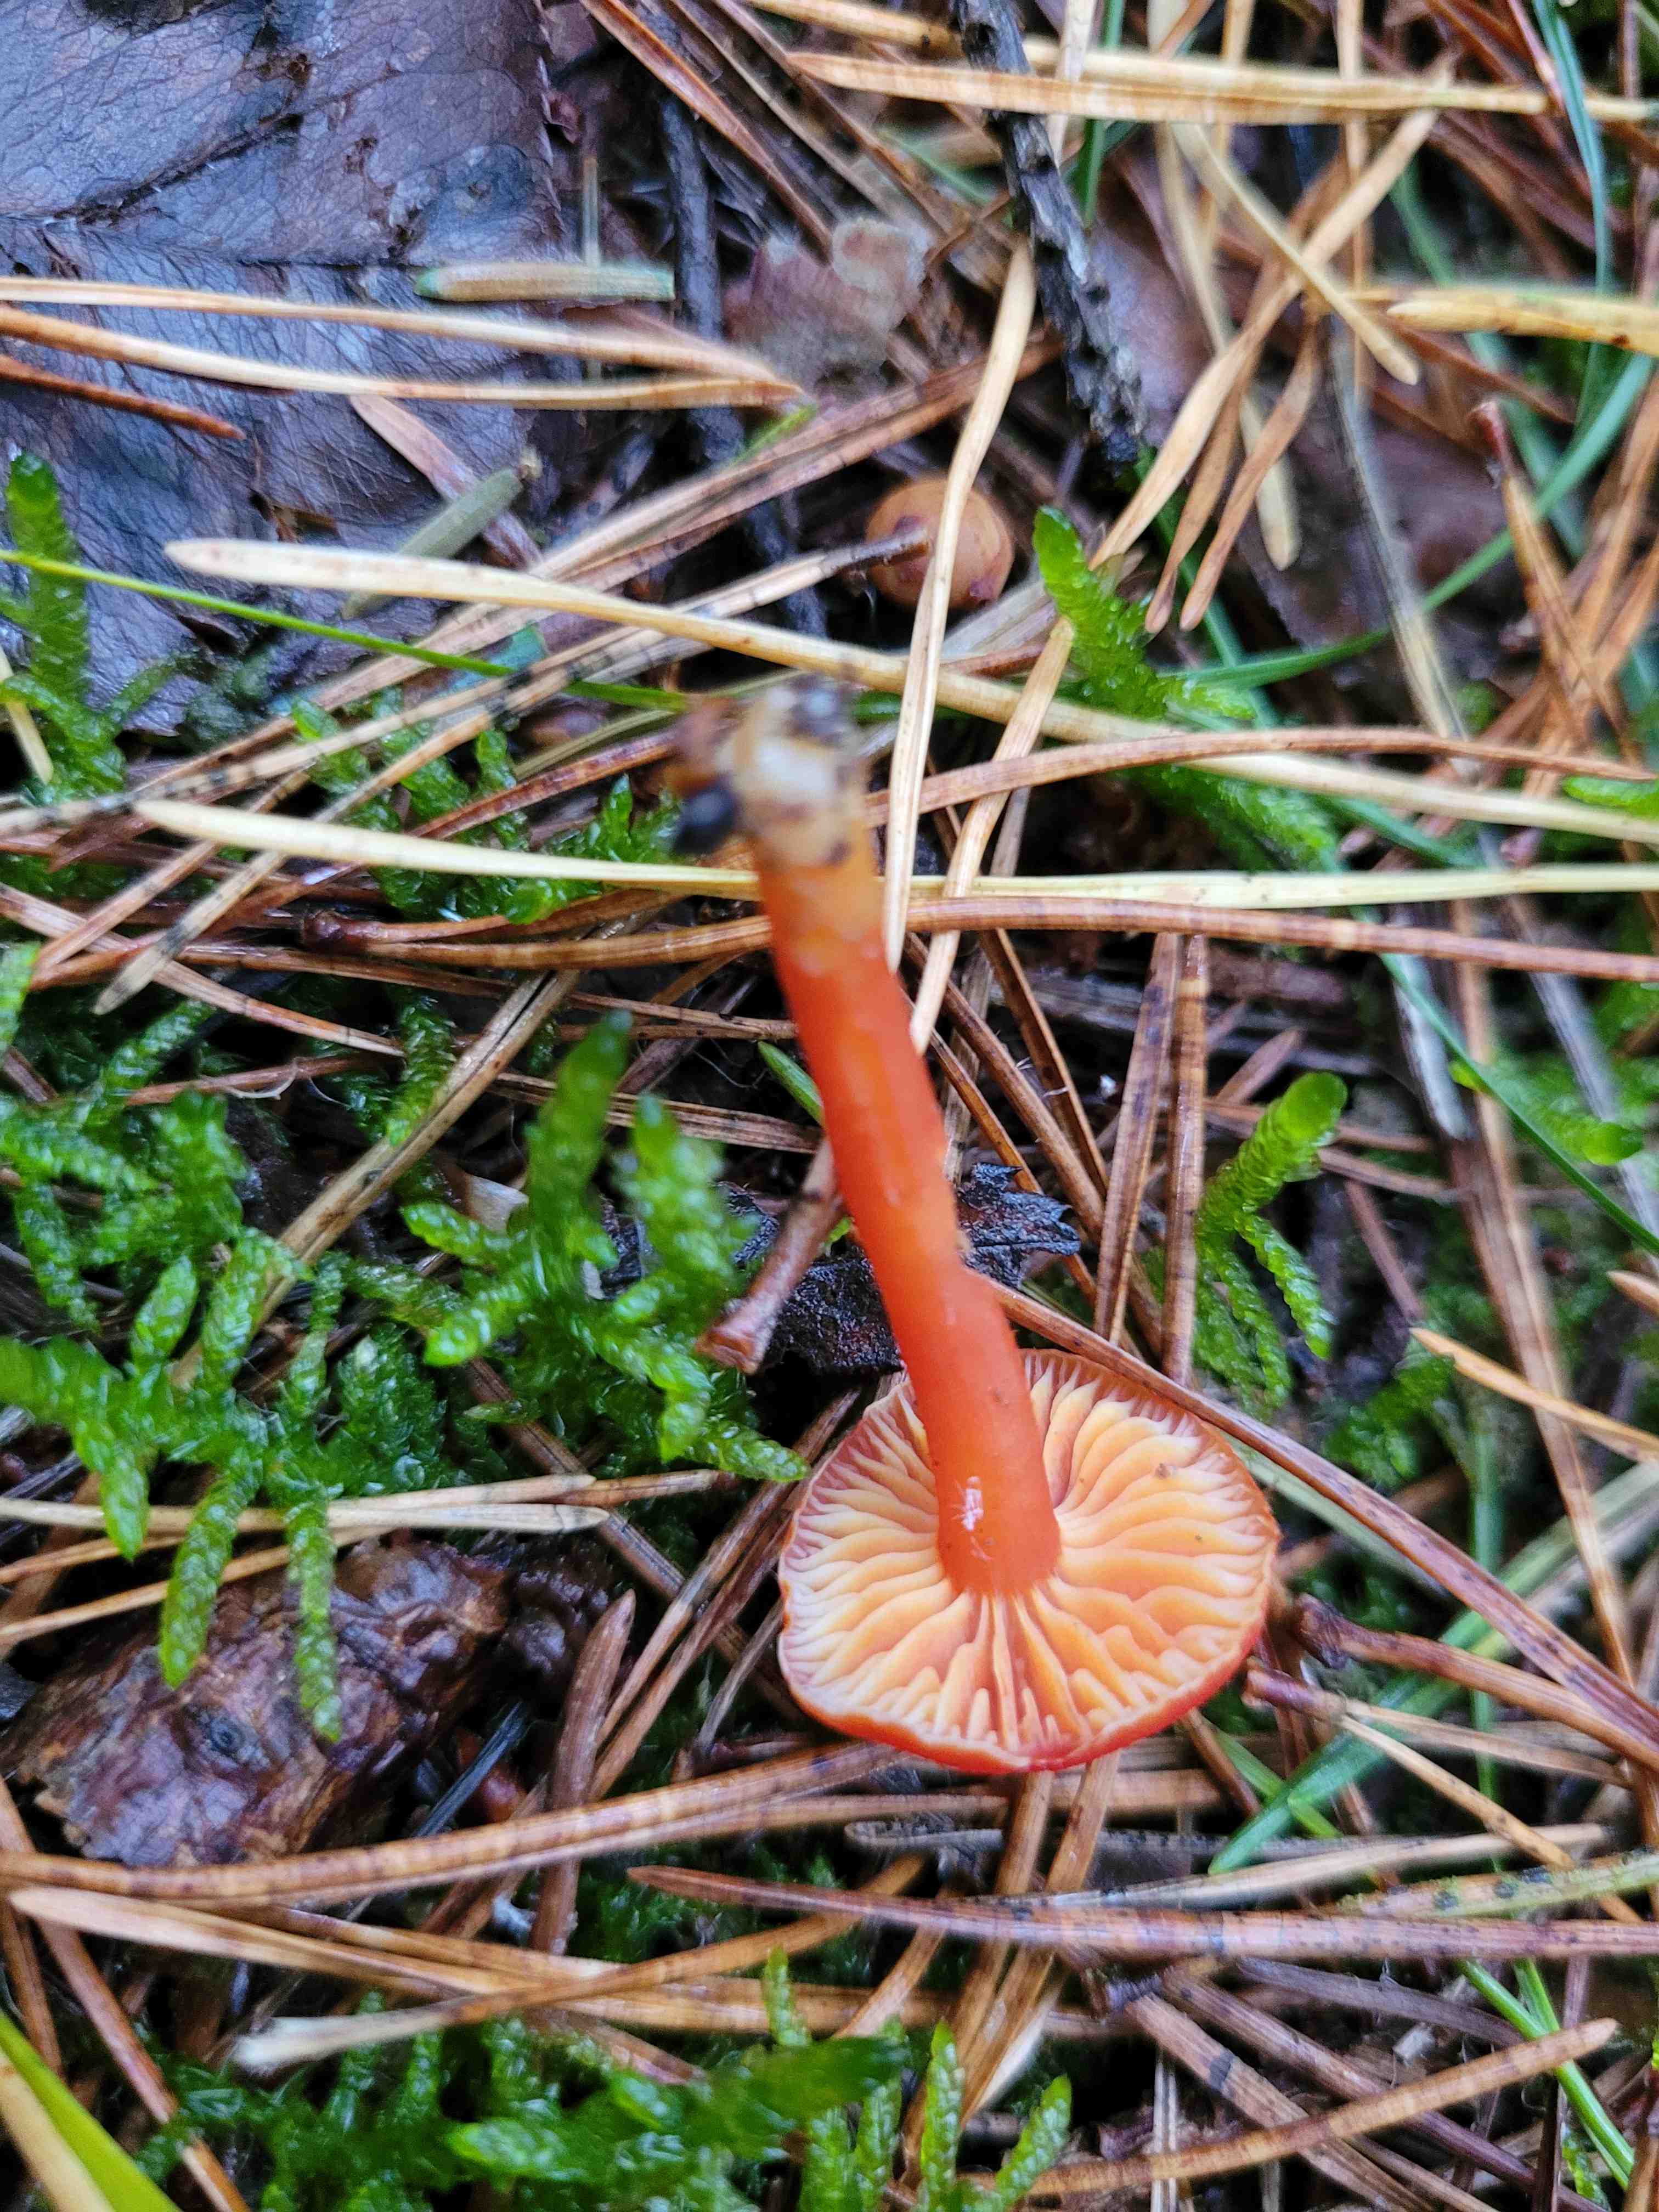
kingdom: Fungi
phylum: Basidiomycota
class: Agaricomycetes
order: Agaricales
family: Hygrophoraceae
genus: Hygrocybe
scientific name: Hygrocybe miniata
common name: mønje-vokshat
